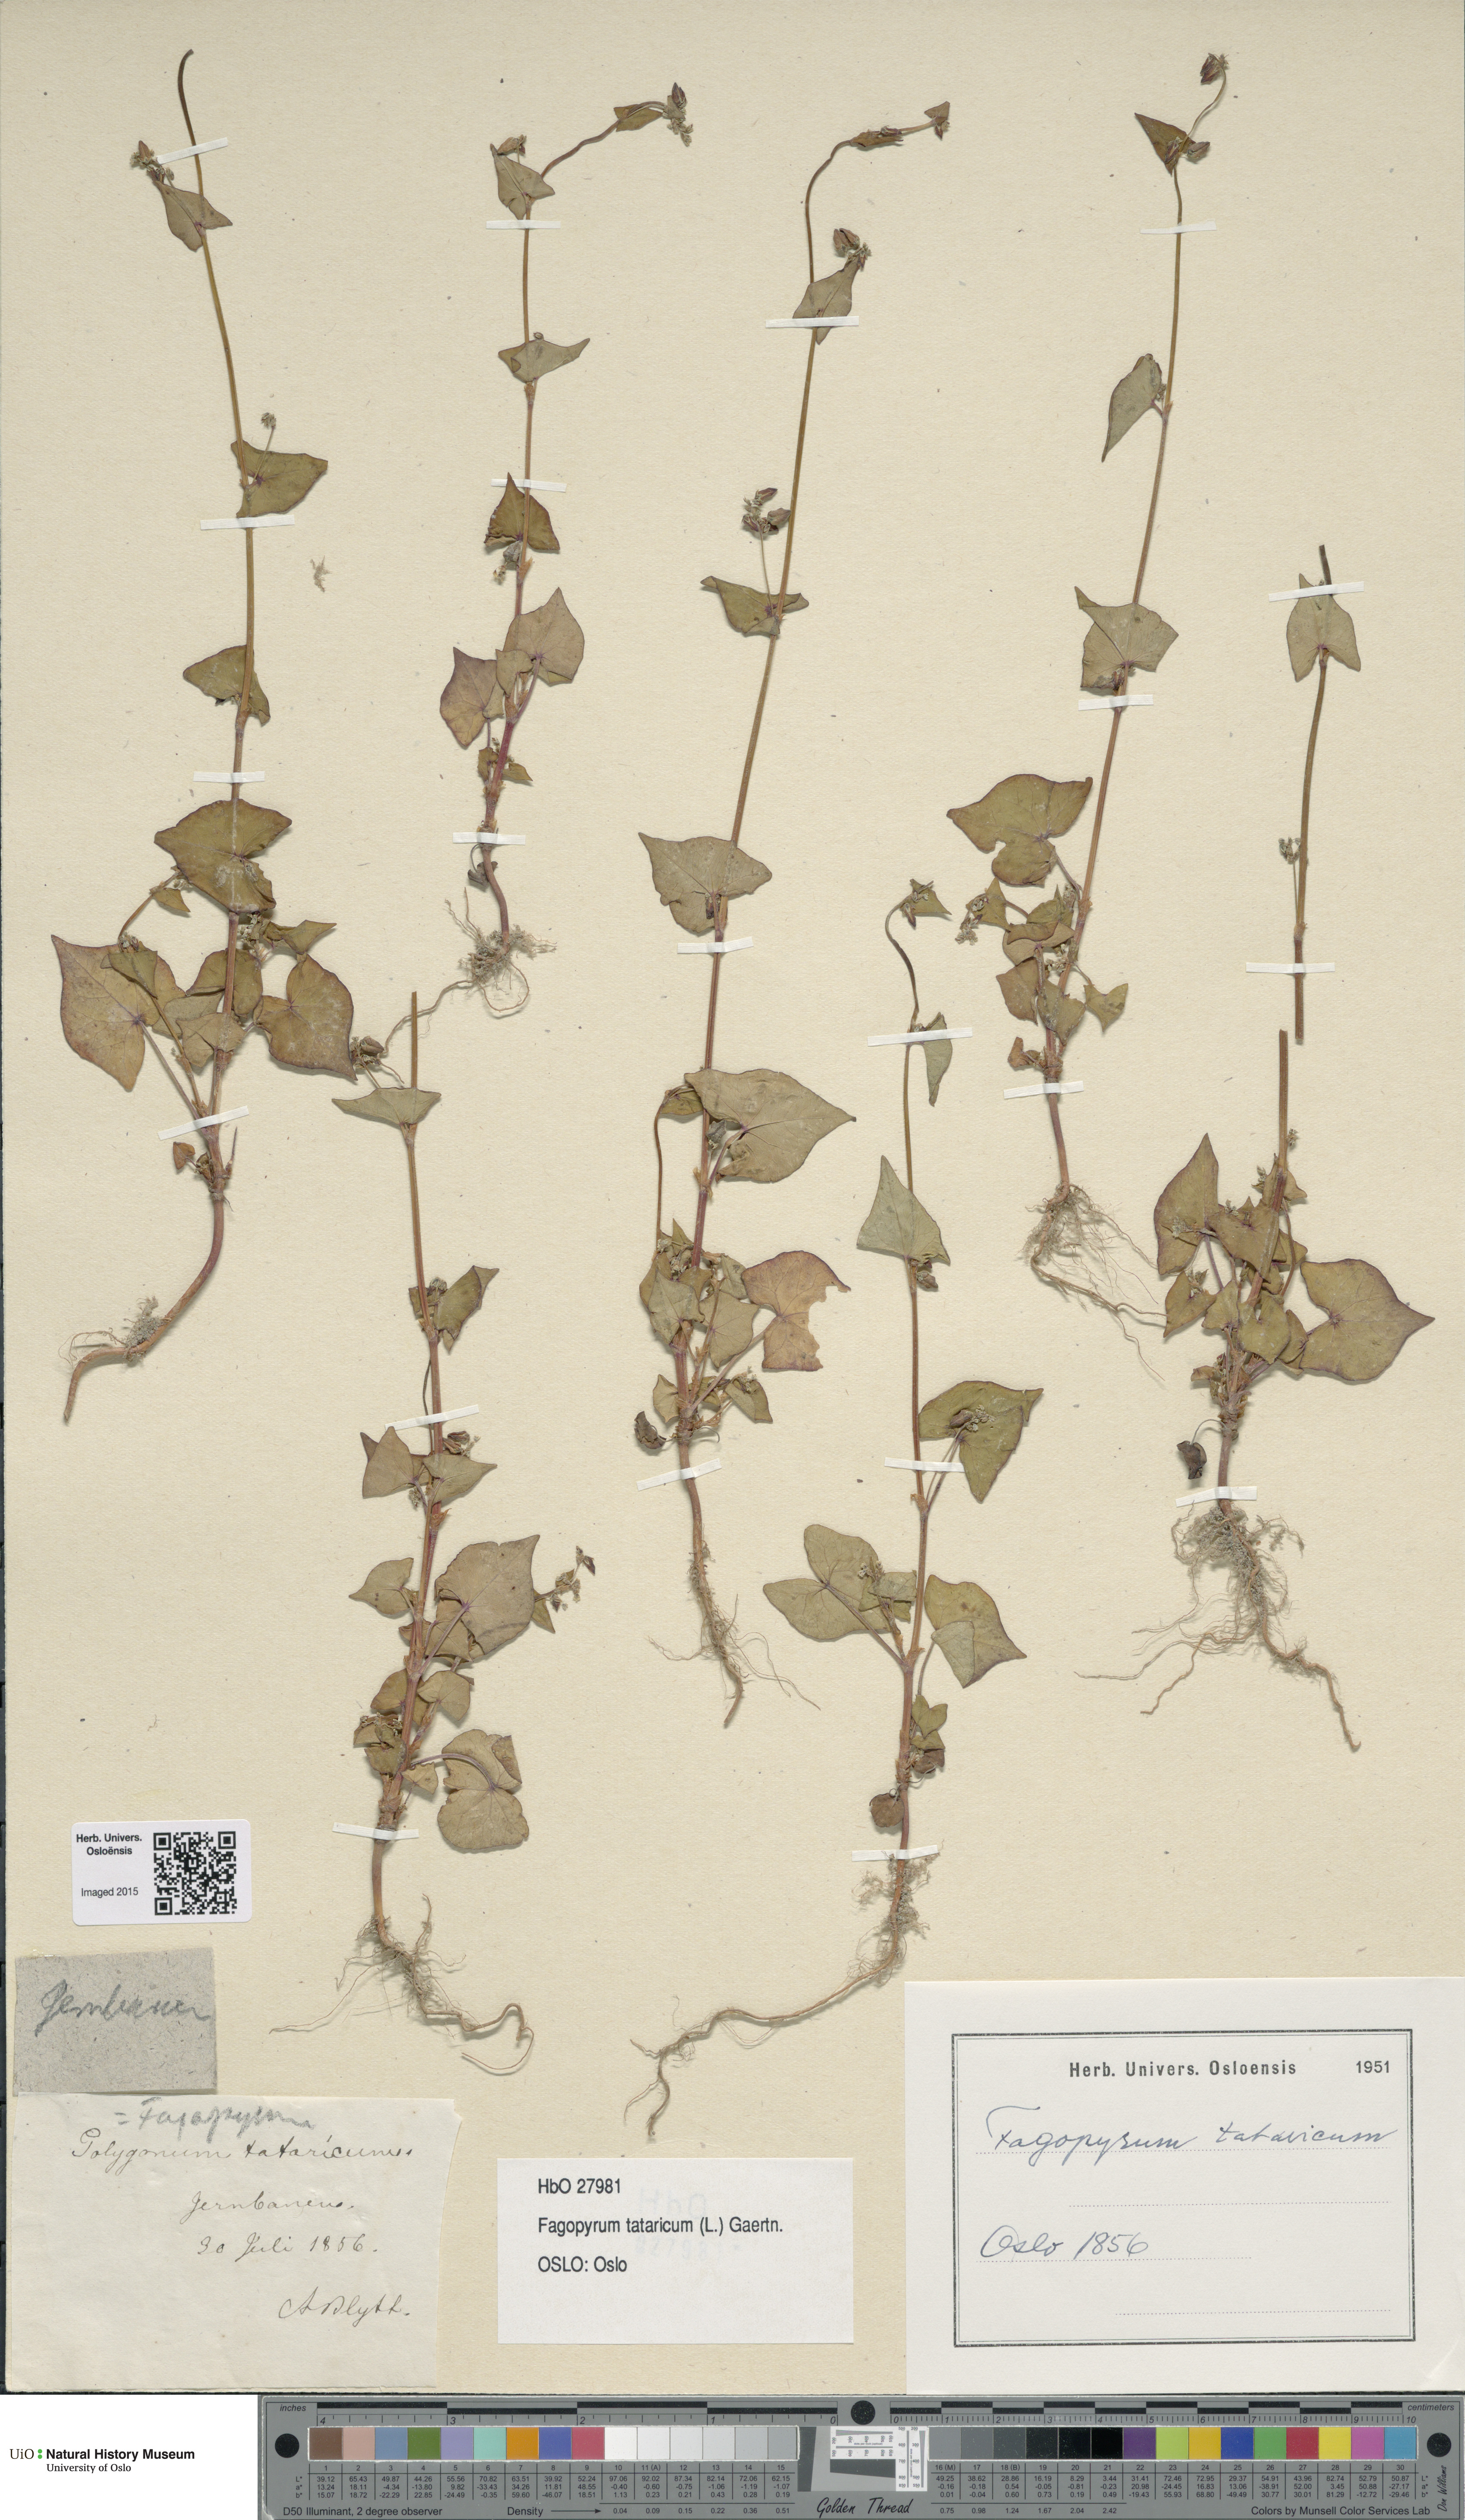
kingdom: Plantae
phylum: Tracheophyta
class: Magnoliopsida
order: Caryophyllales
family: Polygonaceae
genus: Fagopyrum
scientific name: Fagopyrum tataricum
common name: Green buckwheat
